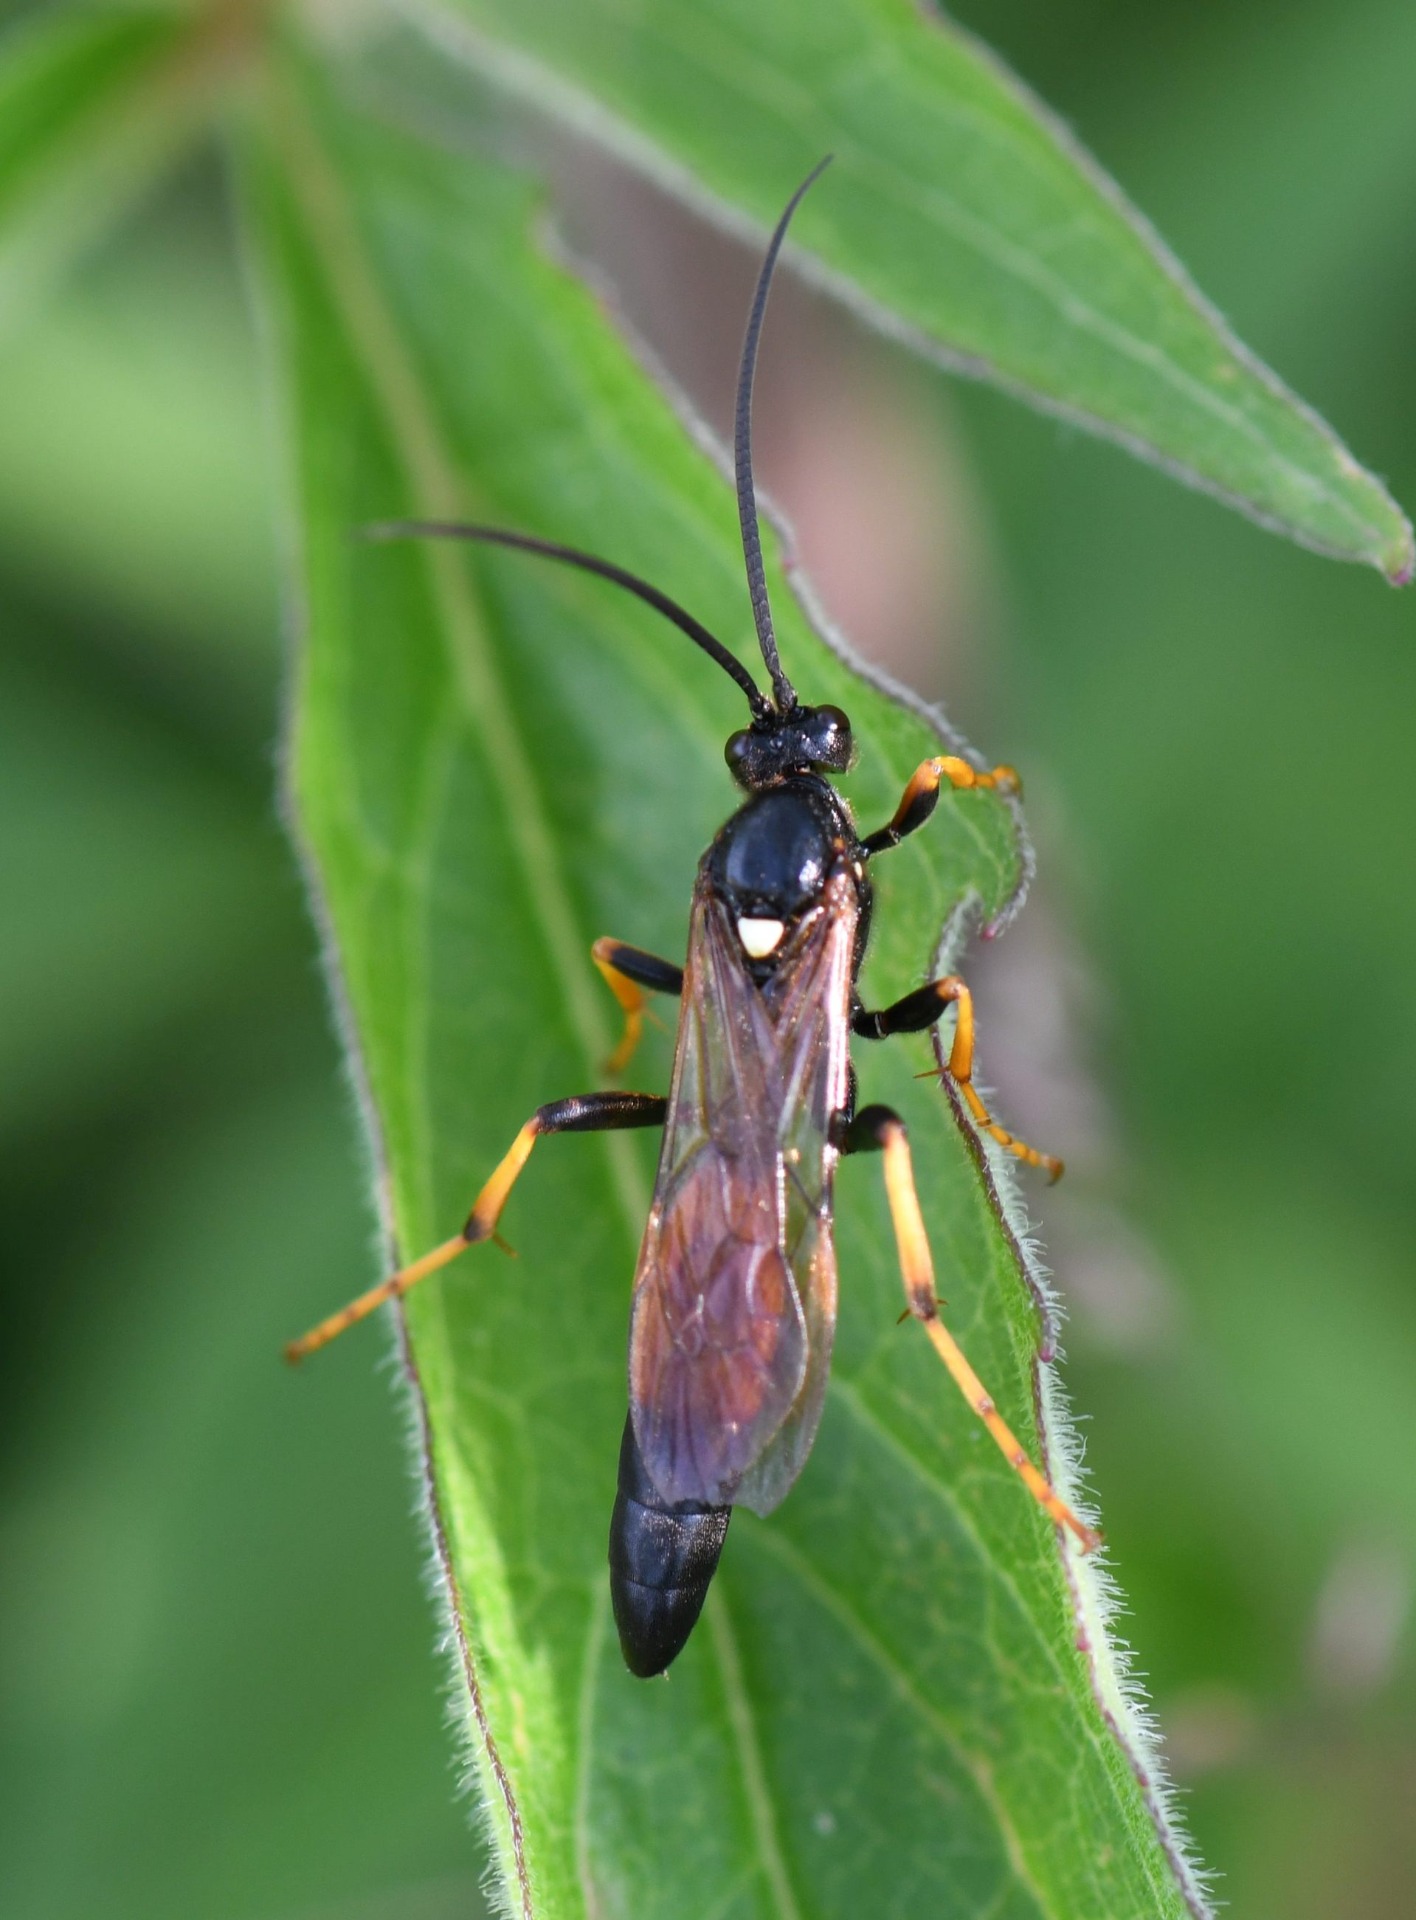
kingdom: Animalia
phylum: Arthropoda
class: Insecta
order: Hymenoptera
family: Ichneumonidae
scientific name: Ichneumonidae
